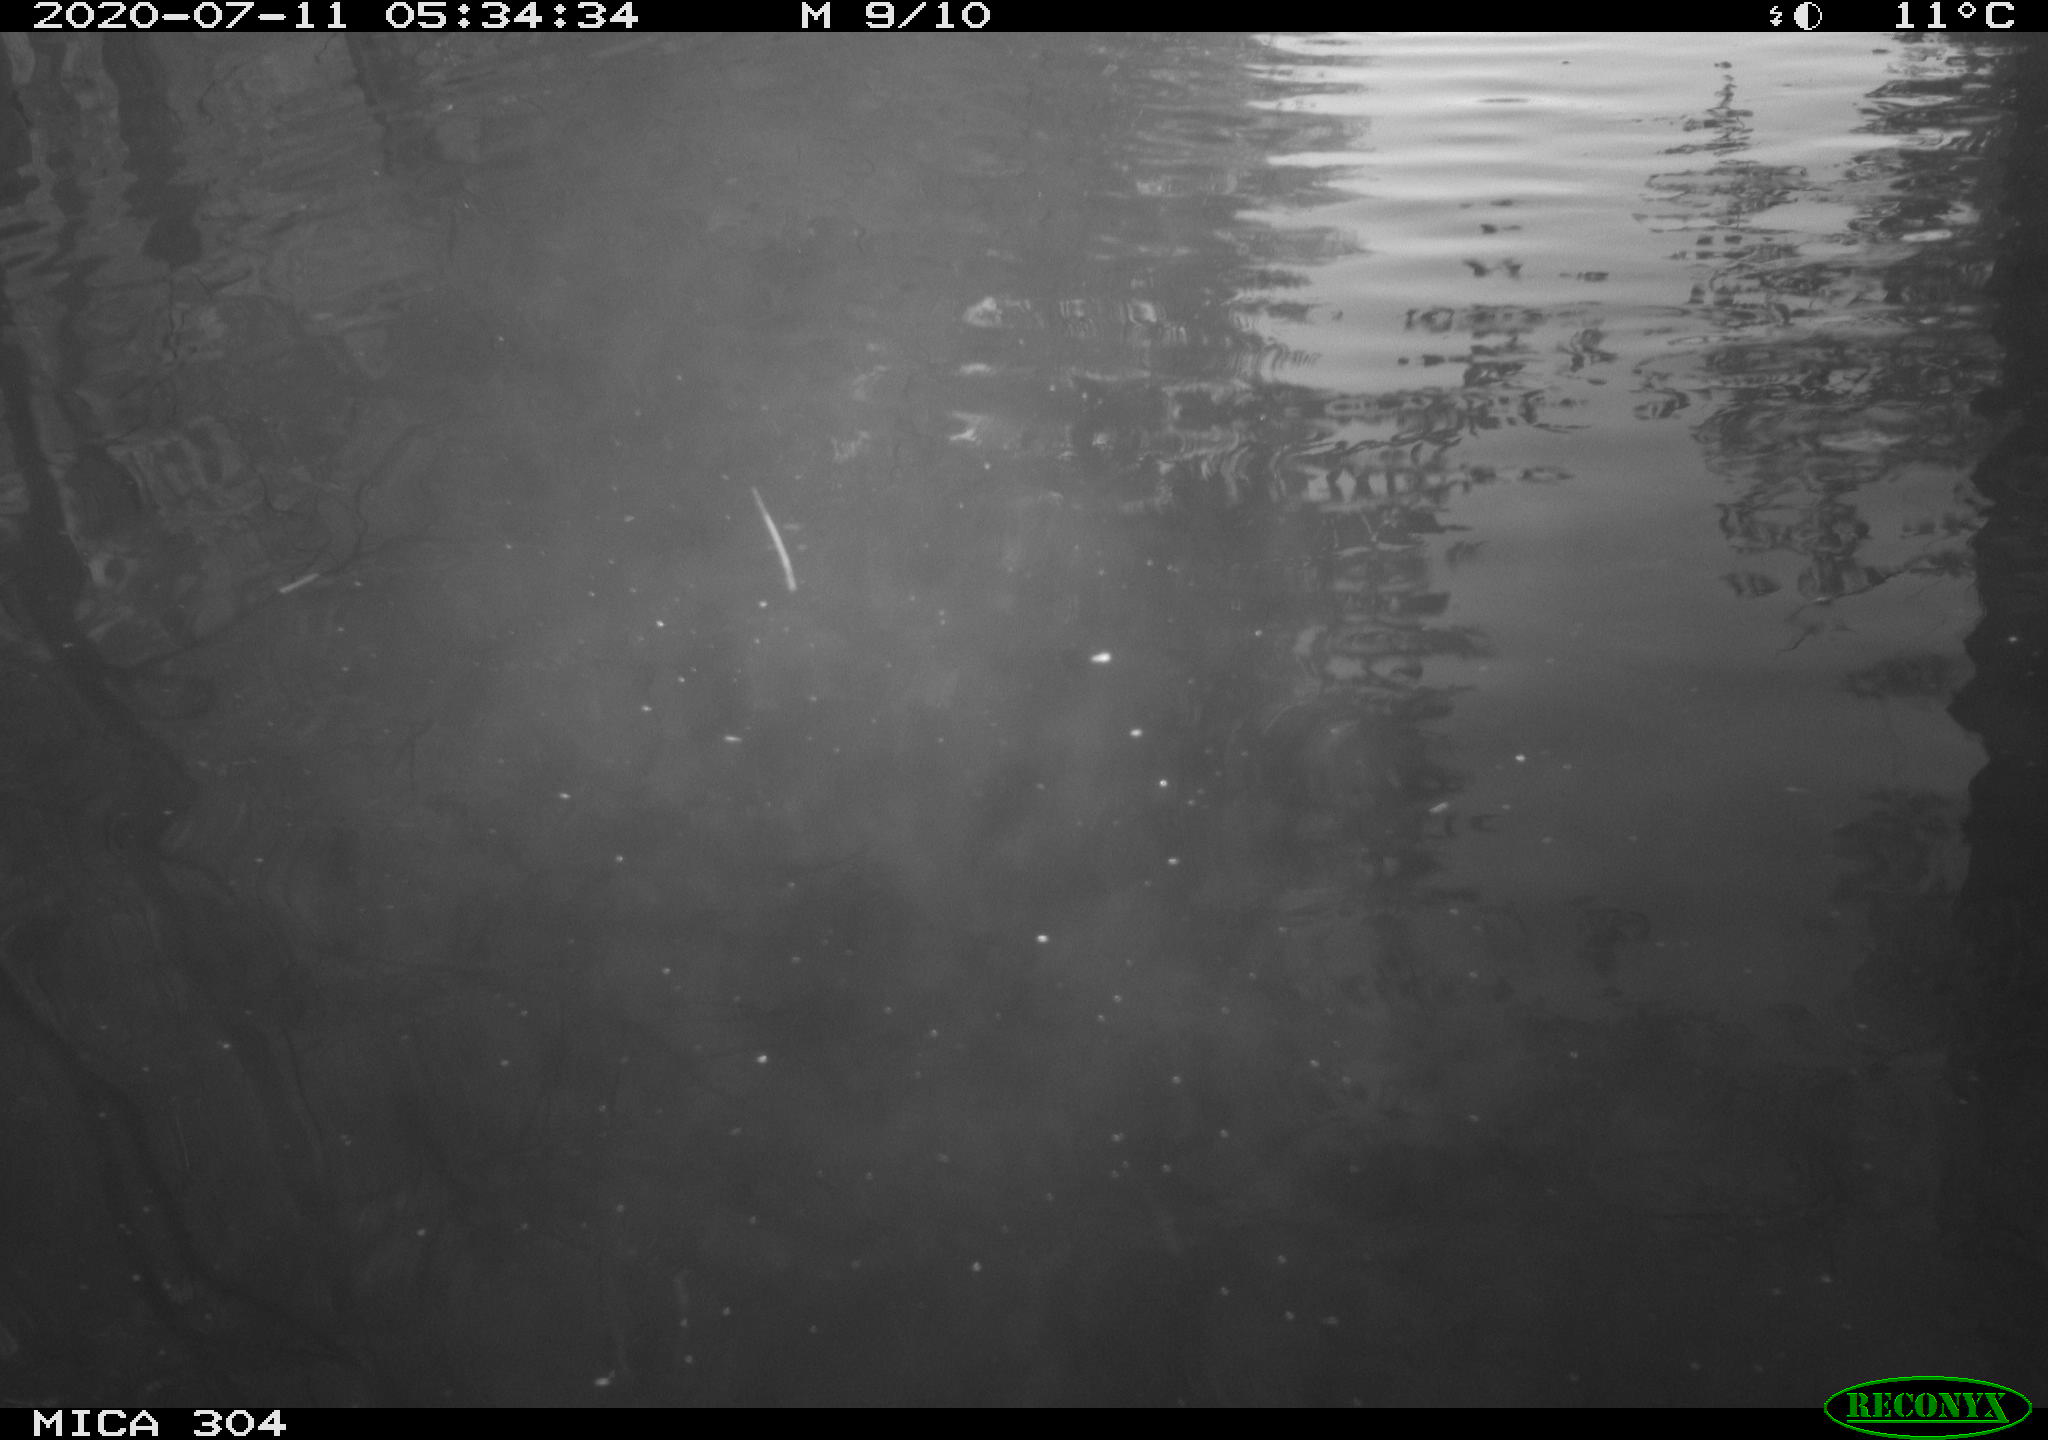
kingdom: Animalia
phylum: Chordata
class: Mammalia
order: Rodentia
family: Cricetidae
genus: Ondatra
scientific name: Ondatra zibethicus
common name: Muskrat
